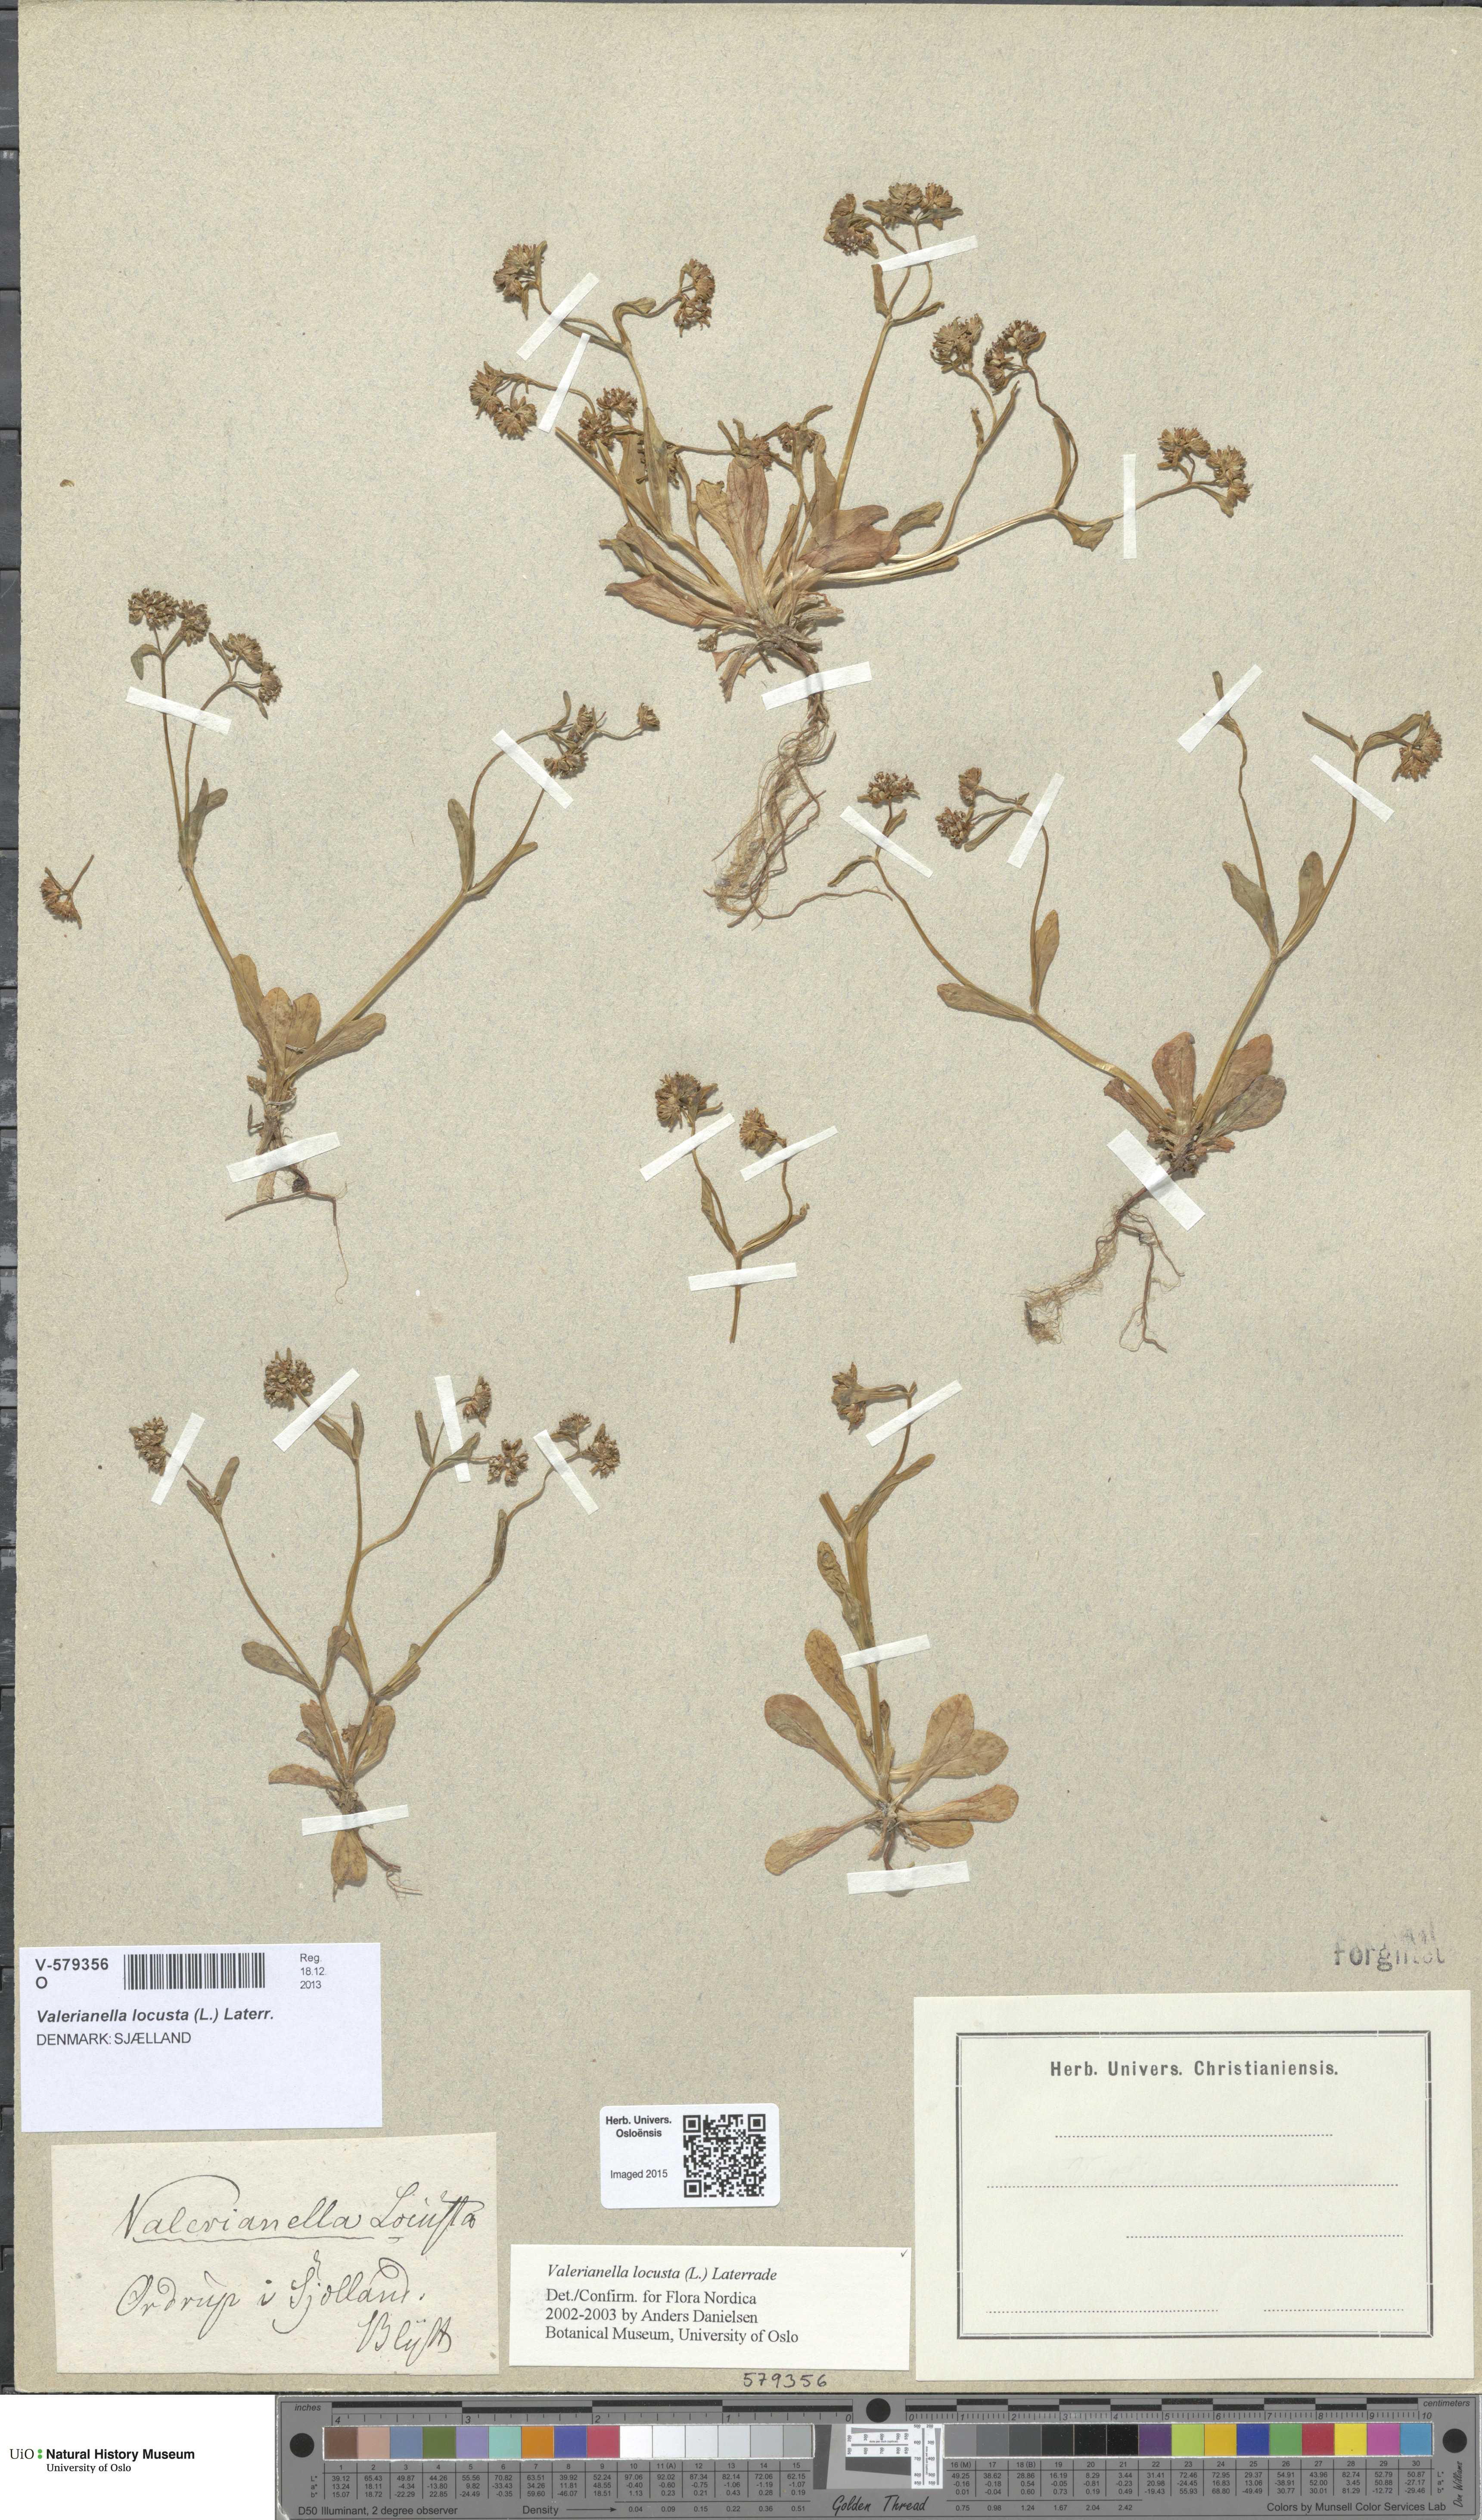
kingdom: Plantae
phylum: Tracheophyta
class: Magnoliopsida
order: Dipsacales
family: Caprifoliaceae
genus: Valerianella
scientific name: Valerianella locusta
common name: Common cornsalad
